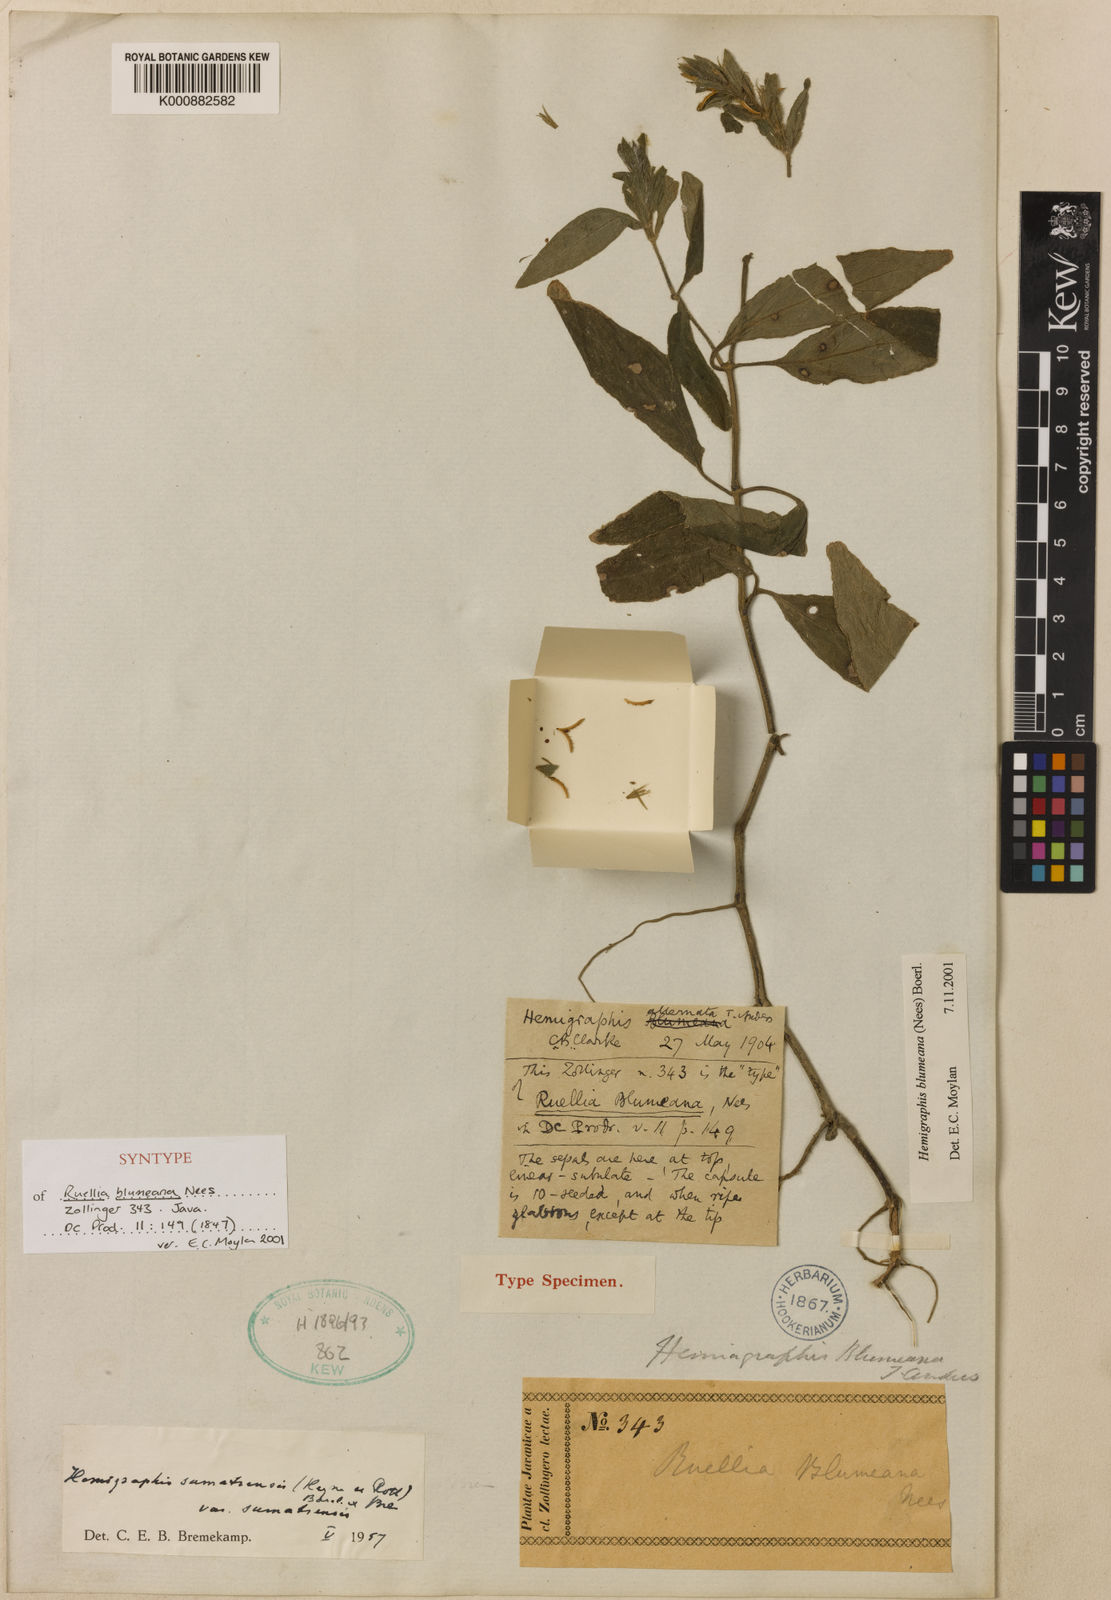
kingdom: Plantae
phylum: Tracheophyta
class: Magnoliopsida
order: Lamiales
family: Acanthaceae
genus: Strobilanthes
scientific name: Strobilanthes blumeana
